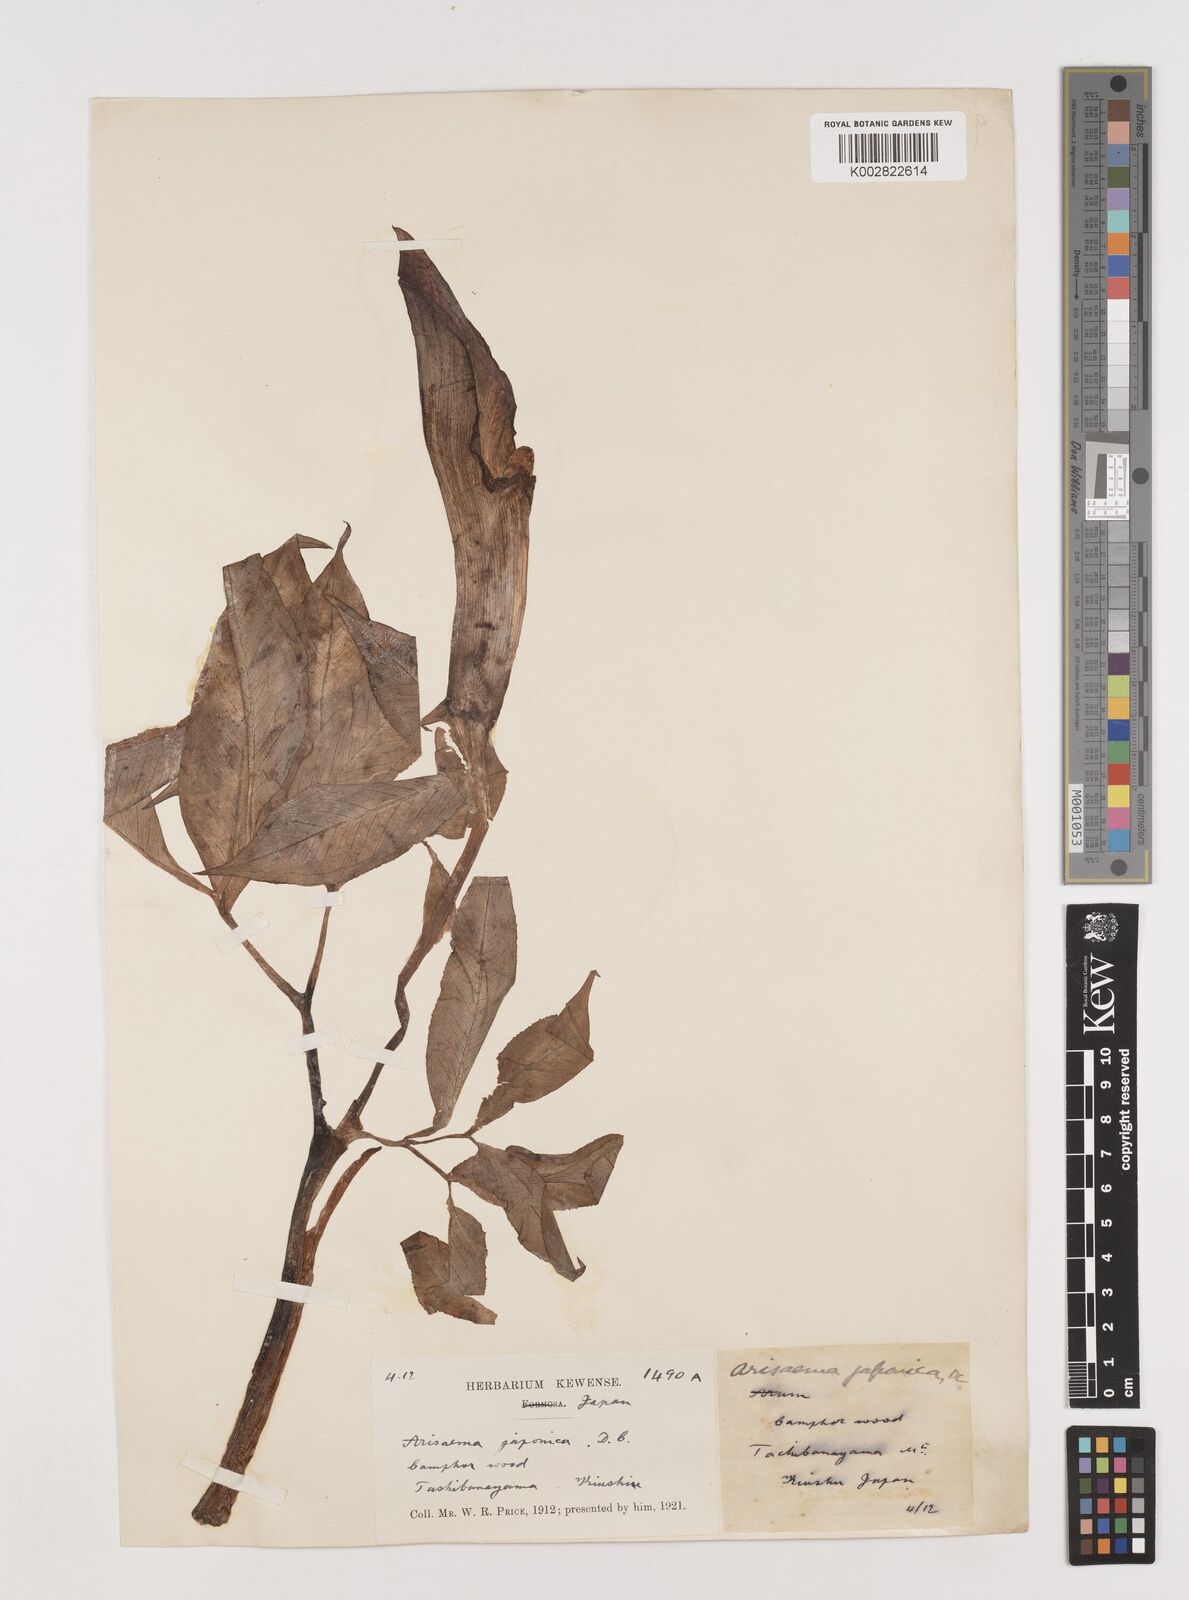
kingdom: Plantae
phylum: Tracheophyta
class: Liliopsida
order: Alismatales
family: Araceae
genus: Arisaema
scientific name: Arisaema serratum
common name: Japanese arisaema
